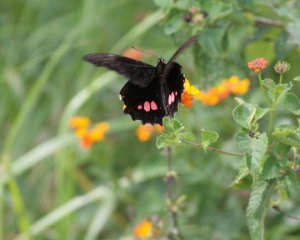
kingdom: Animalia
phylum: Arthropoda
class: Insecta
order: Lepidoptera
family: Papilionidae
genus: Papilio
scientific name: Papilio anchisiades
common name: Ruby-spotted Swallowtail
